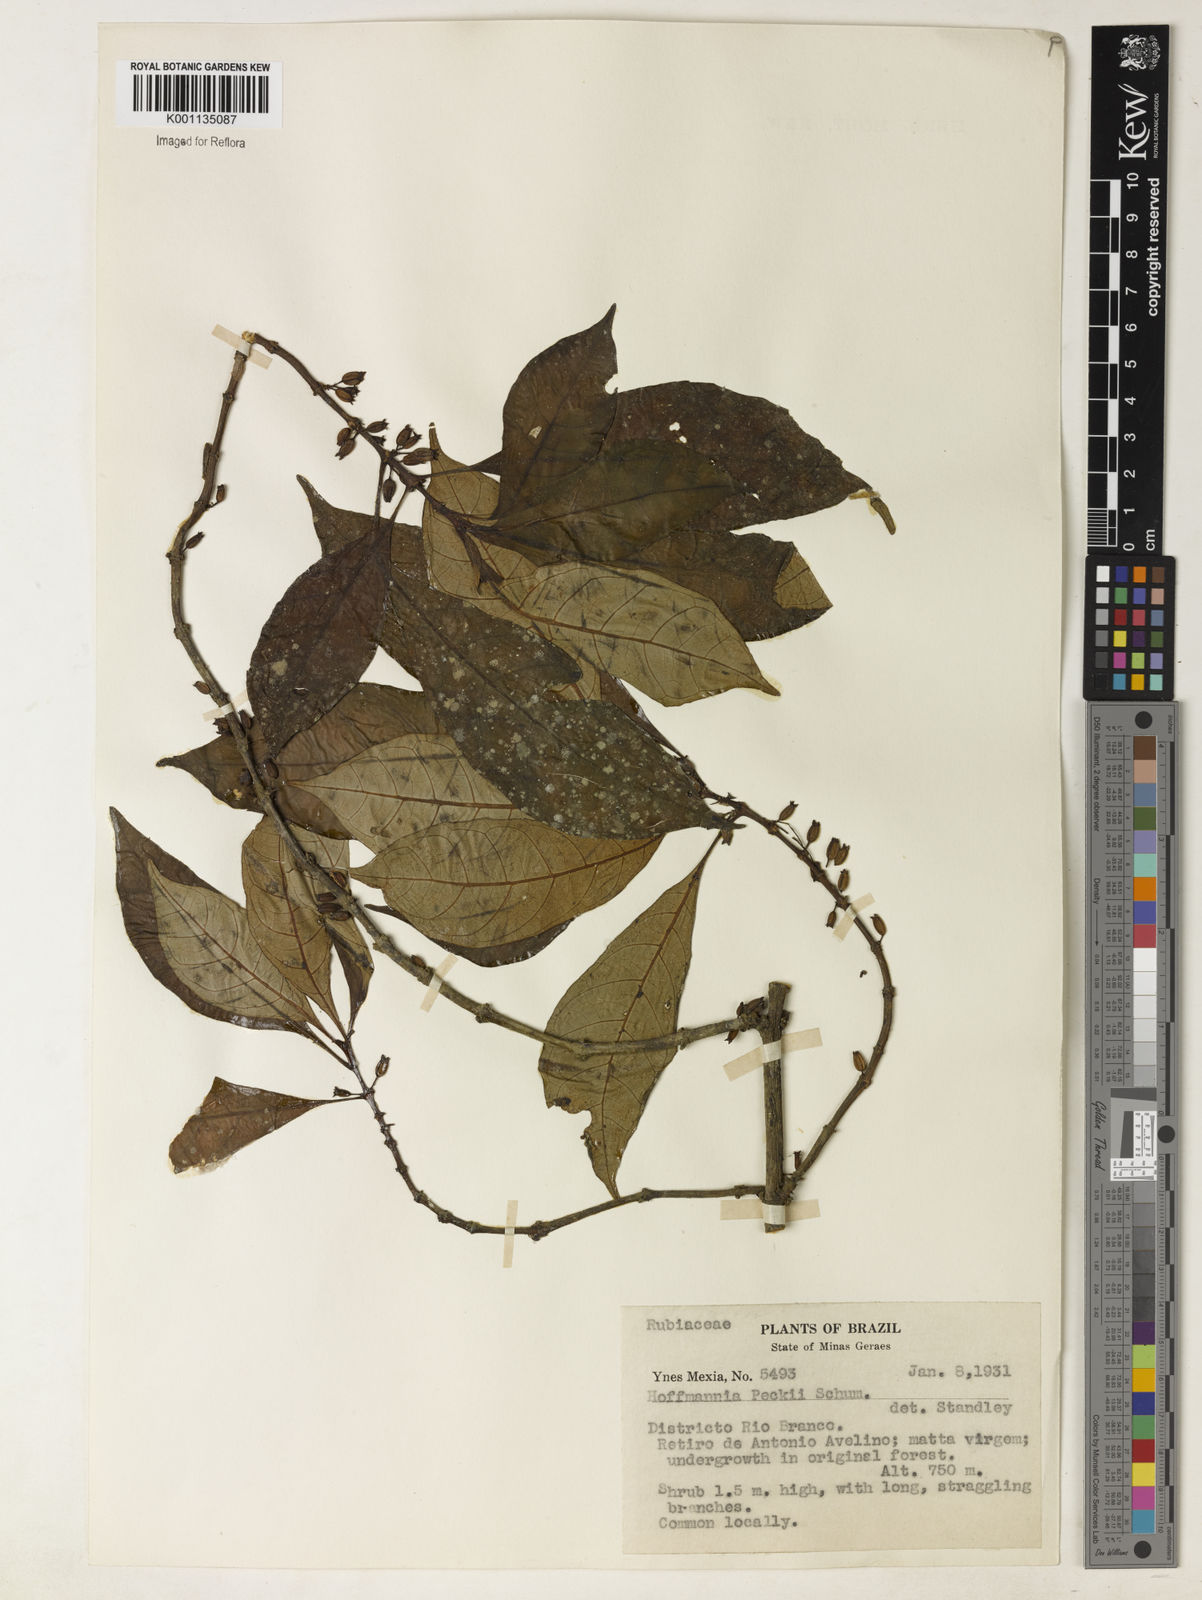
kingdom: Plantae
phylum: Tracheophyta
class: Magnoliopsida
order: Gentianales
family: Rubiaceae
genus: Hoffmannia
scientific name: Hoffmannia peckii
